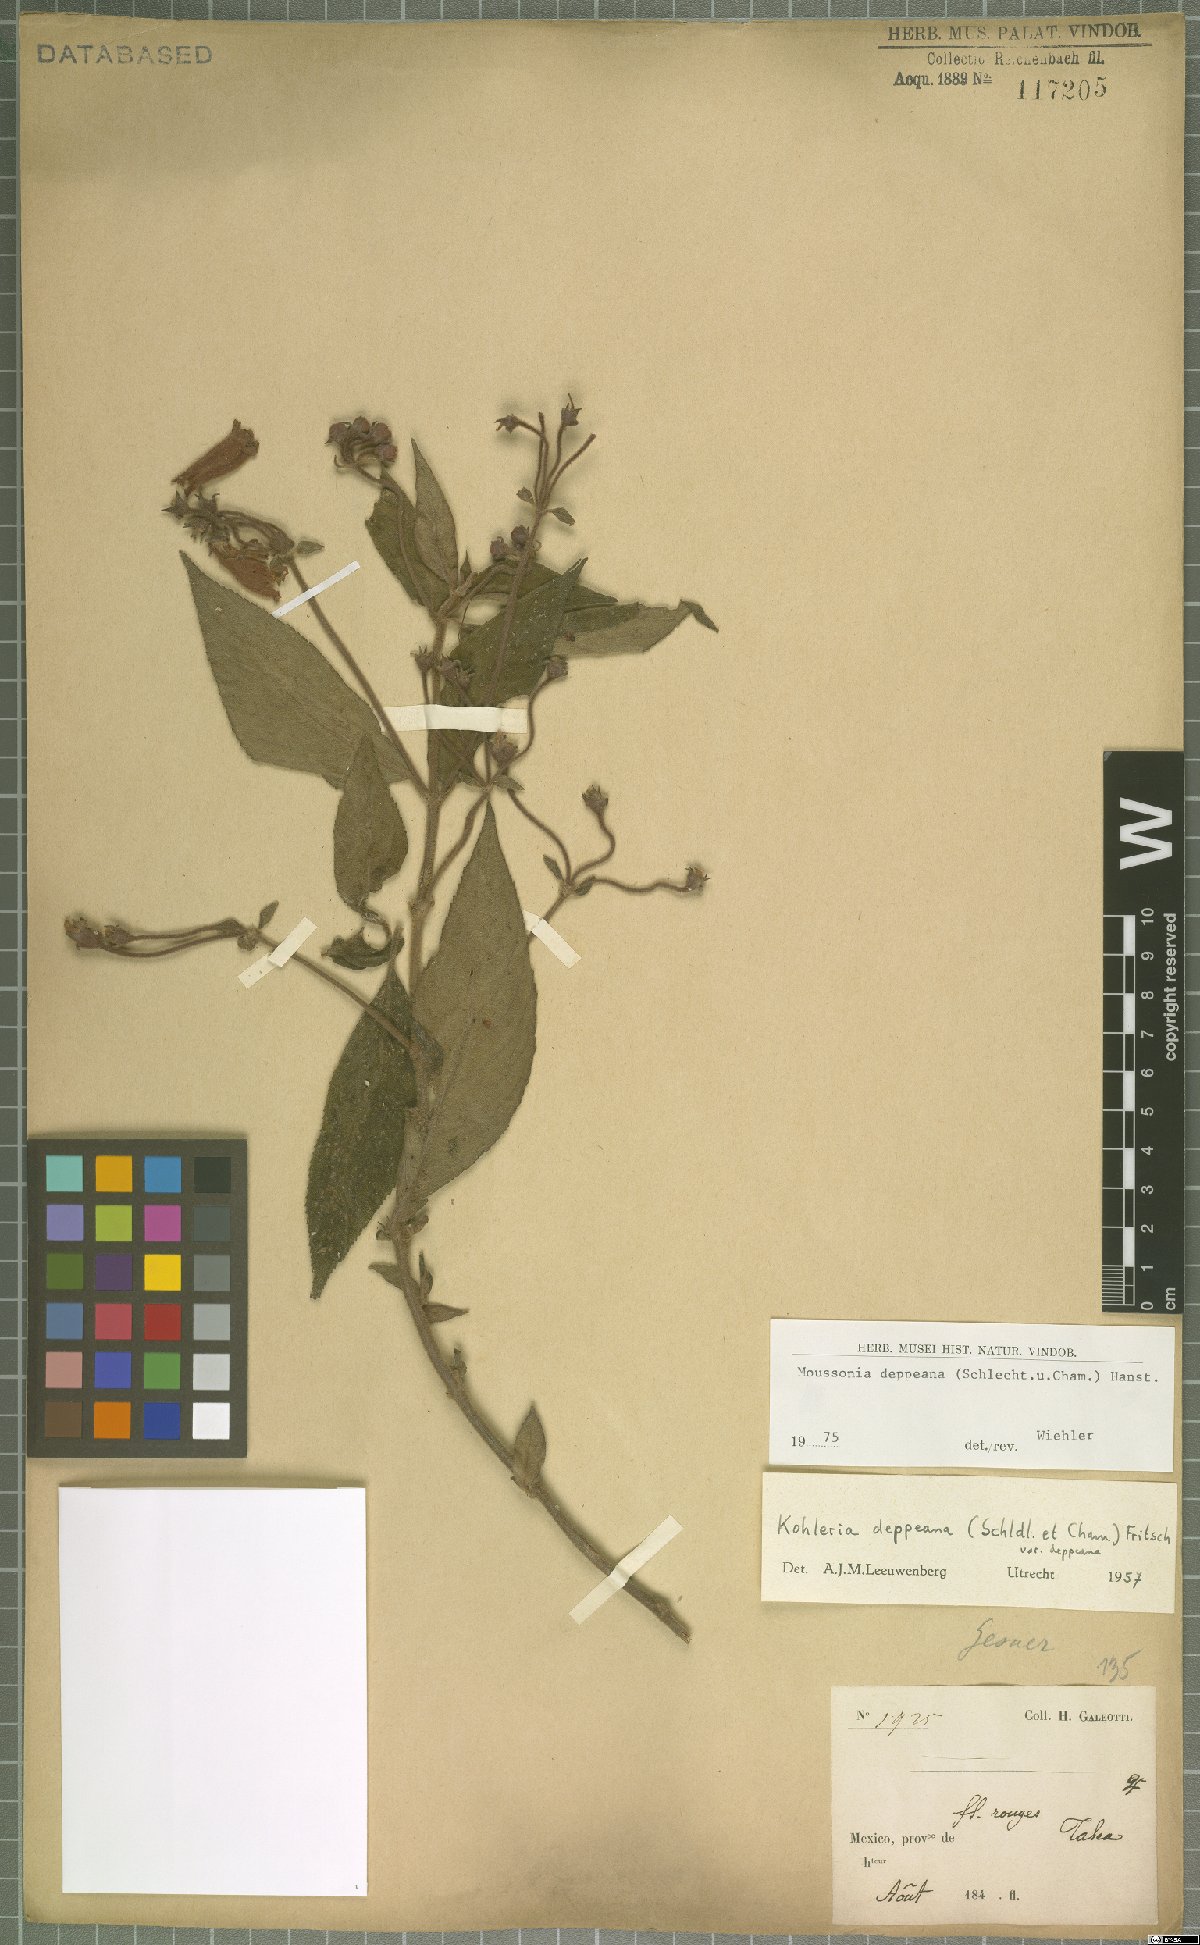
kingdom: Plantae
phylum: Tracheophyta
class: Magnoliopsida
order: Lamiales
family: Gesneriaceae
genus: Moussonia
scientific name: Moussonia deppeana
